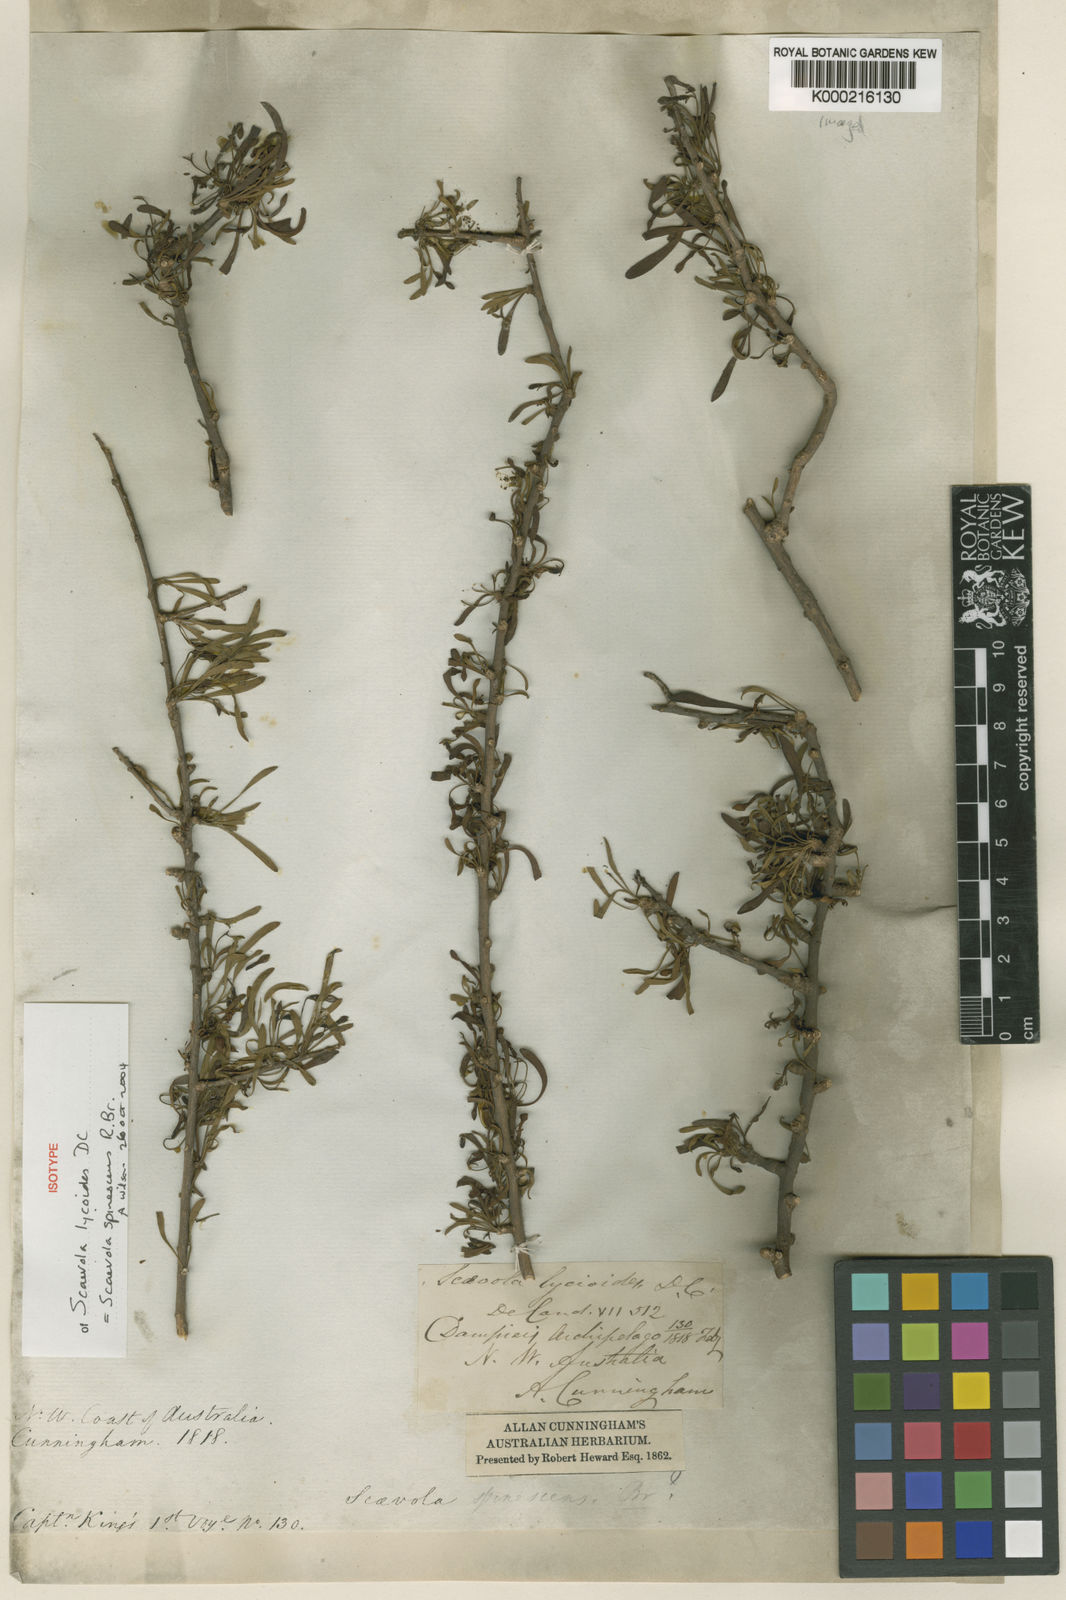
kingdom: Plantae
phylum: Tracheophyta
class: Magnoliopsida
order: Asterales
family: Goodeniaceae
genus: Scaevola
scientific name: Scaevola spinescens
